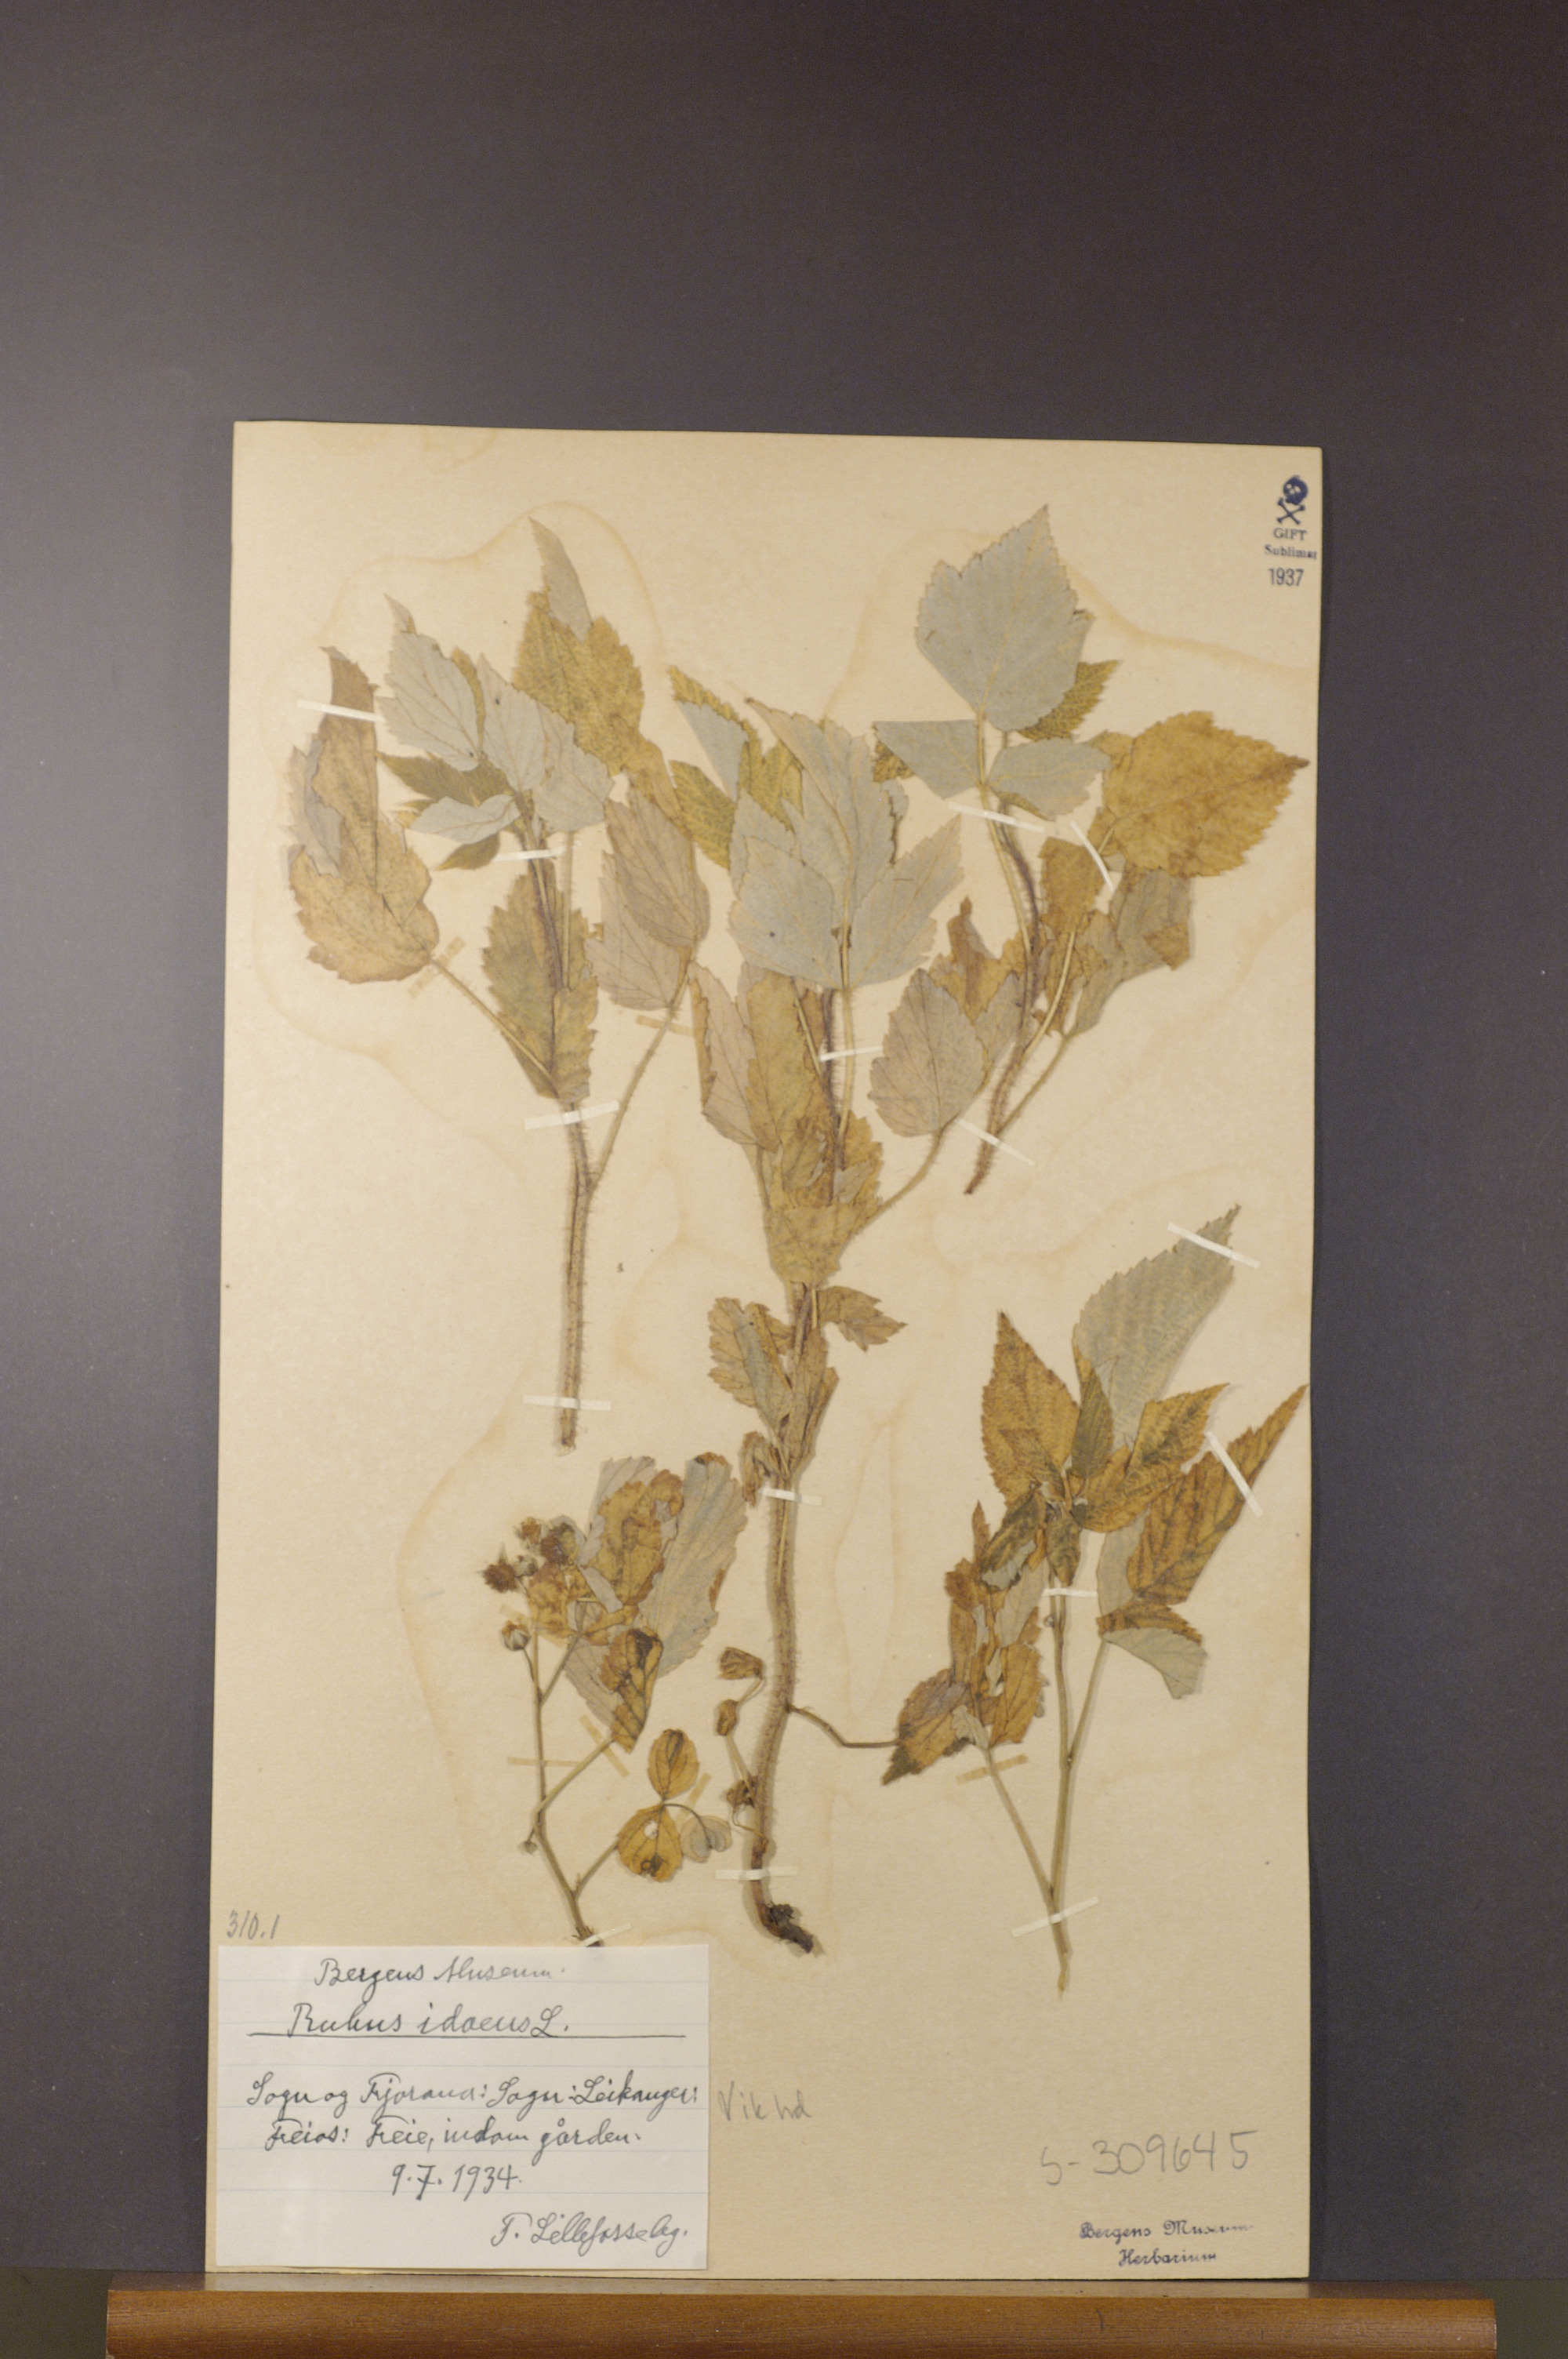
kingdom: Plantae
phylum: Tracheophyta
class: Magnoliopsida
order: Rosales
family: Rosaceae
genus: Rubus
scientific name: Rubus idaeus
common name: Raspberry
